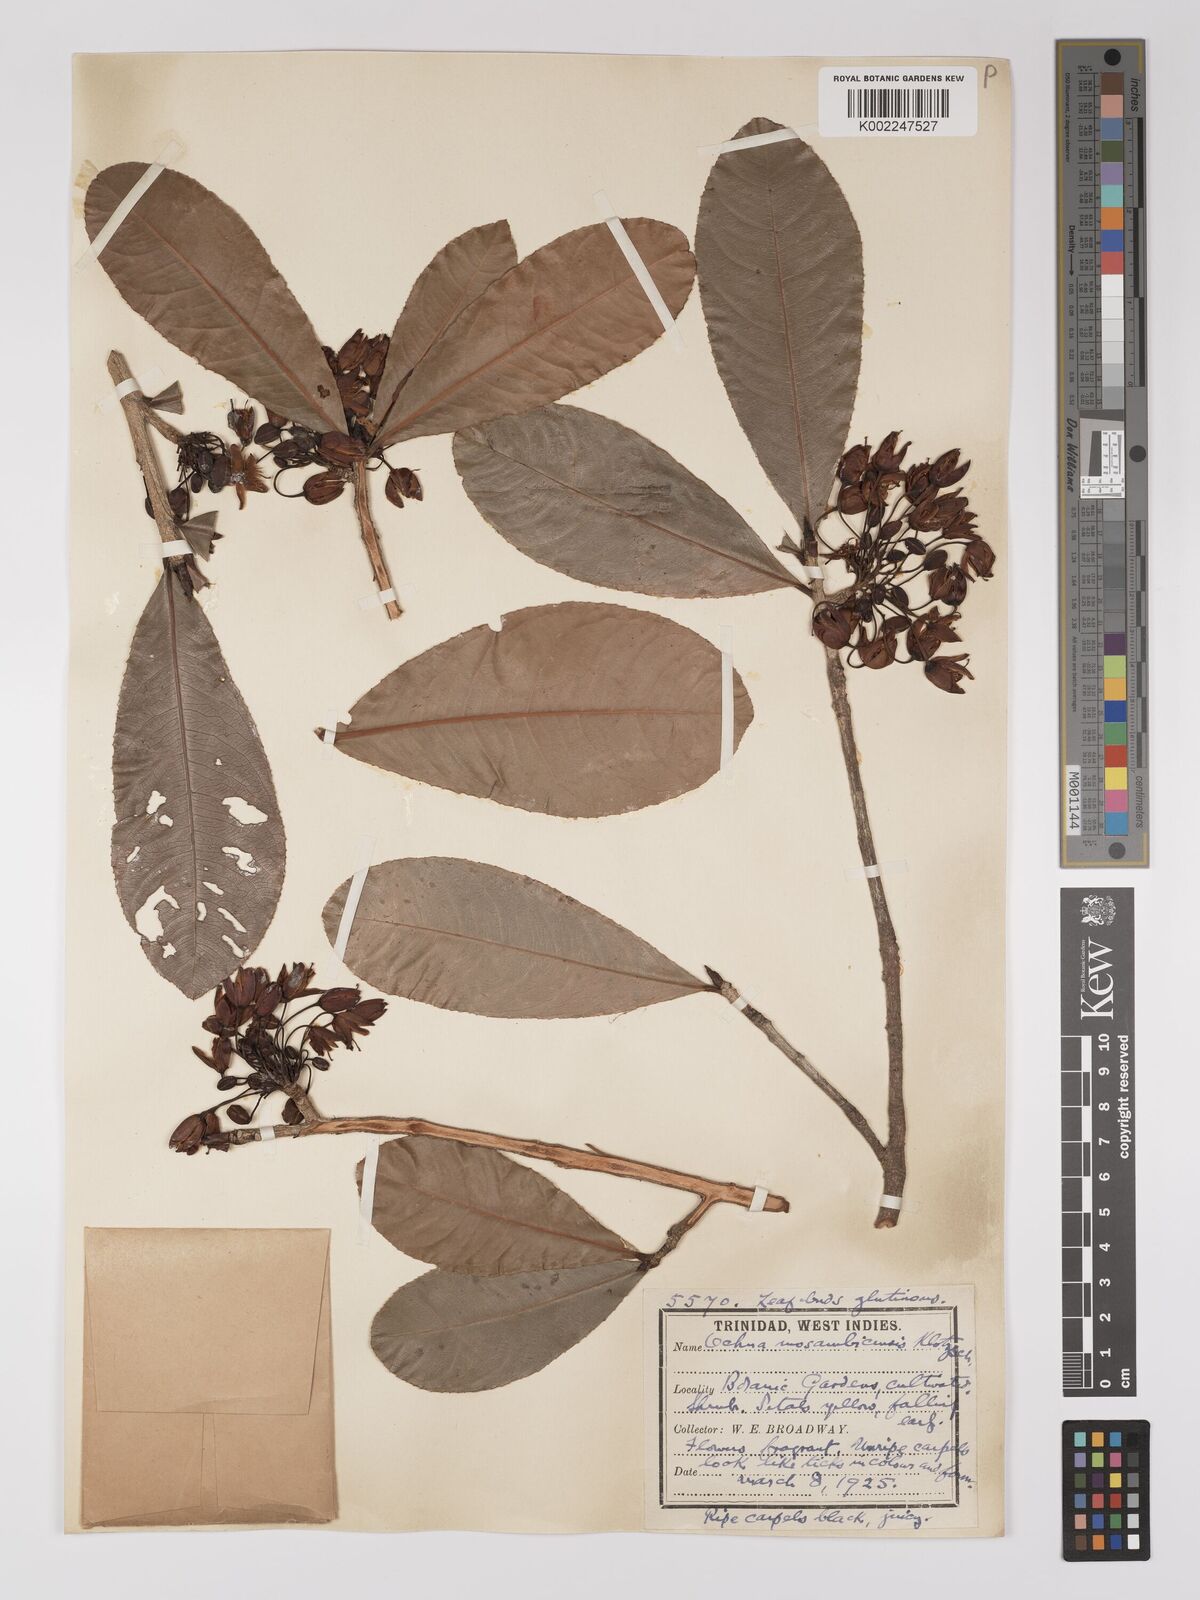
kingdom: Plantae
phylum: Tracheophyta
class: Magnoliopsida
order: Malpighiales
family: Ochnaceae
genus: Ochna
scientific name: Ochna atropurpurea
